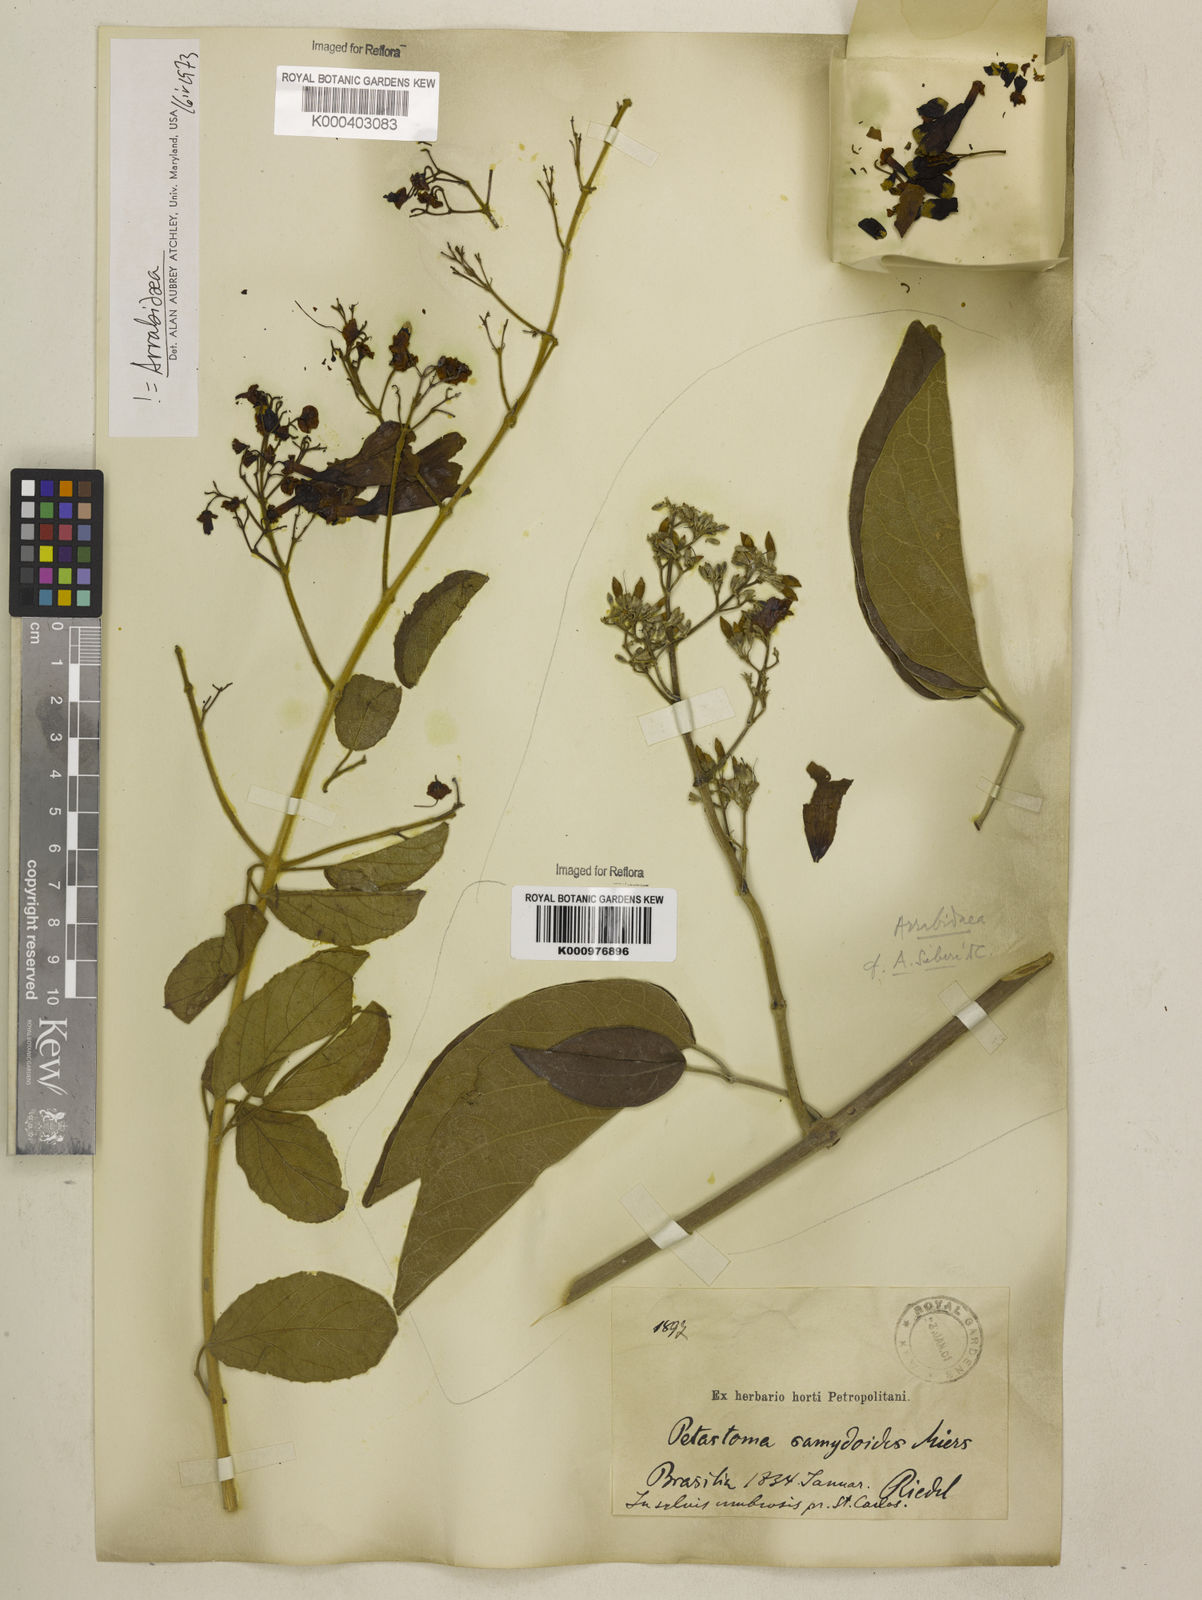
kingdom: Plantae
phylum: Tracheophyta
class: Magnoliopsida
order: Lamiales
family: Bignoniaceae
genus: Fridericia
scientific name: Fridericia samydoides
